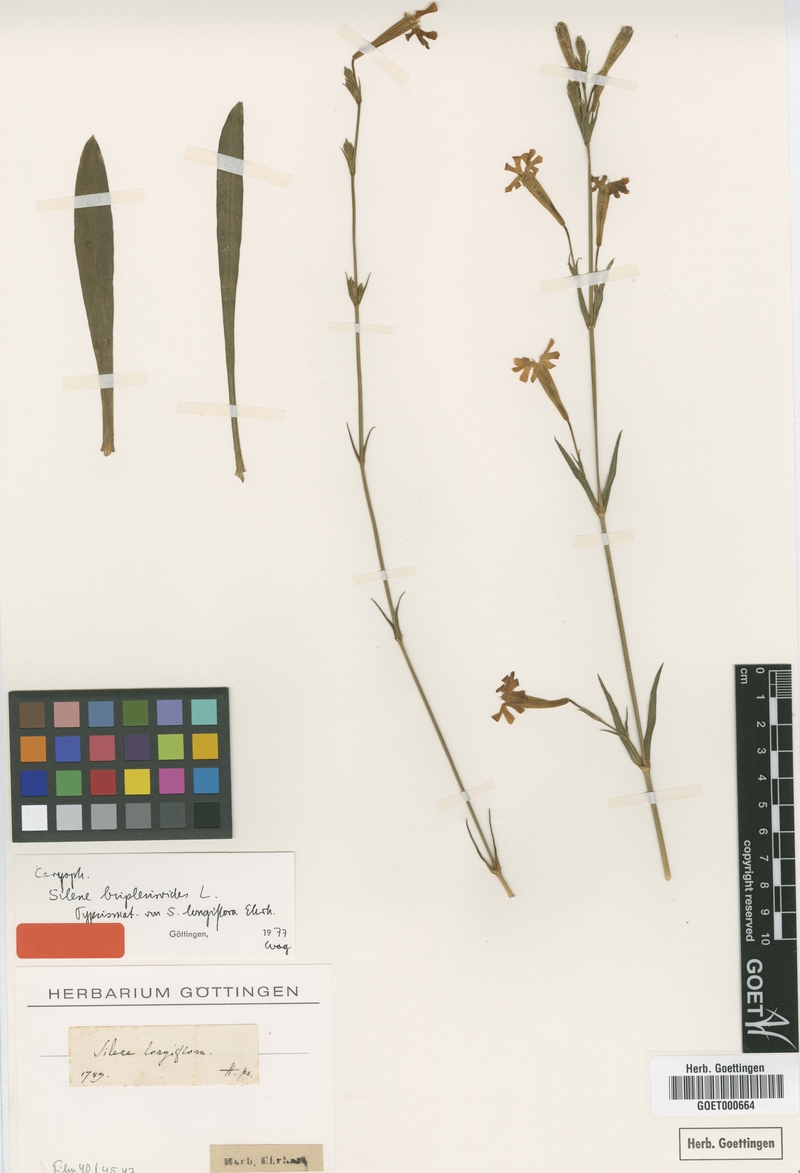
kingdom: Plantae
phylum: Tracheophyta
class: Magnoliopsida
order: Caryophyllales
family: Caryophyllaceae
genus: Silene
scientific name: Silene bupleuroides
